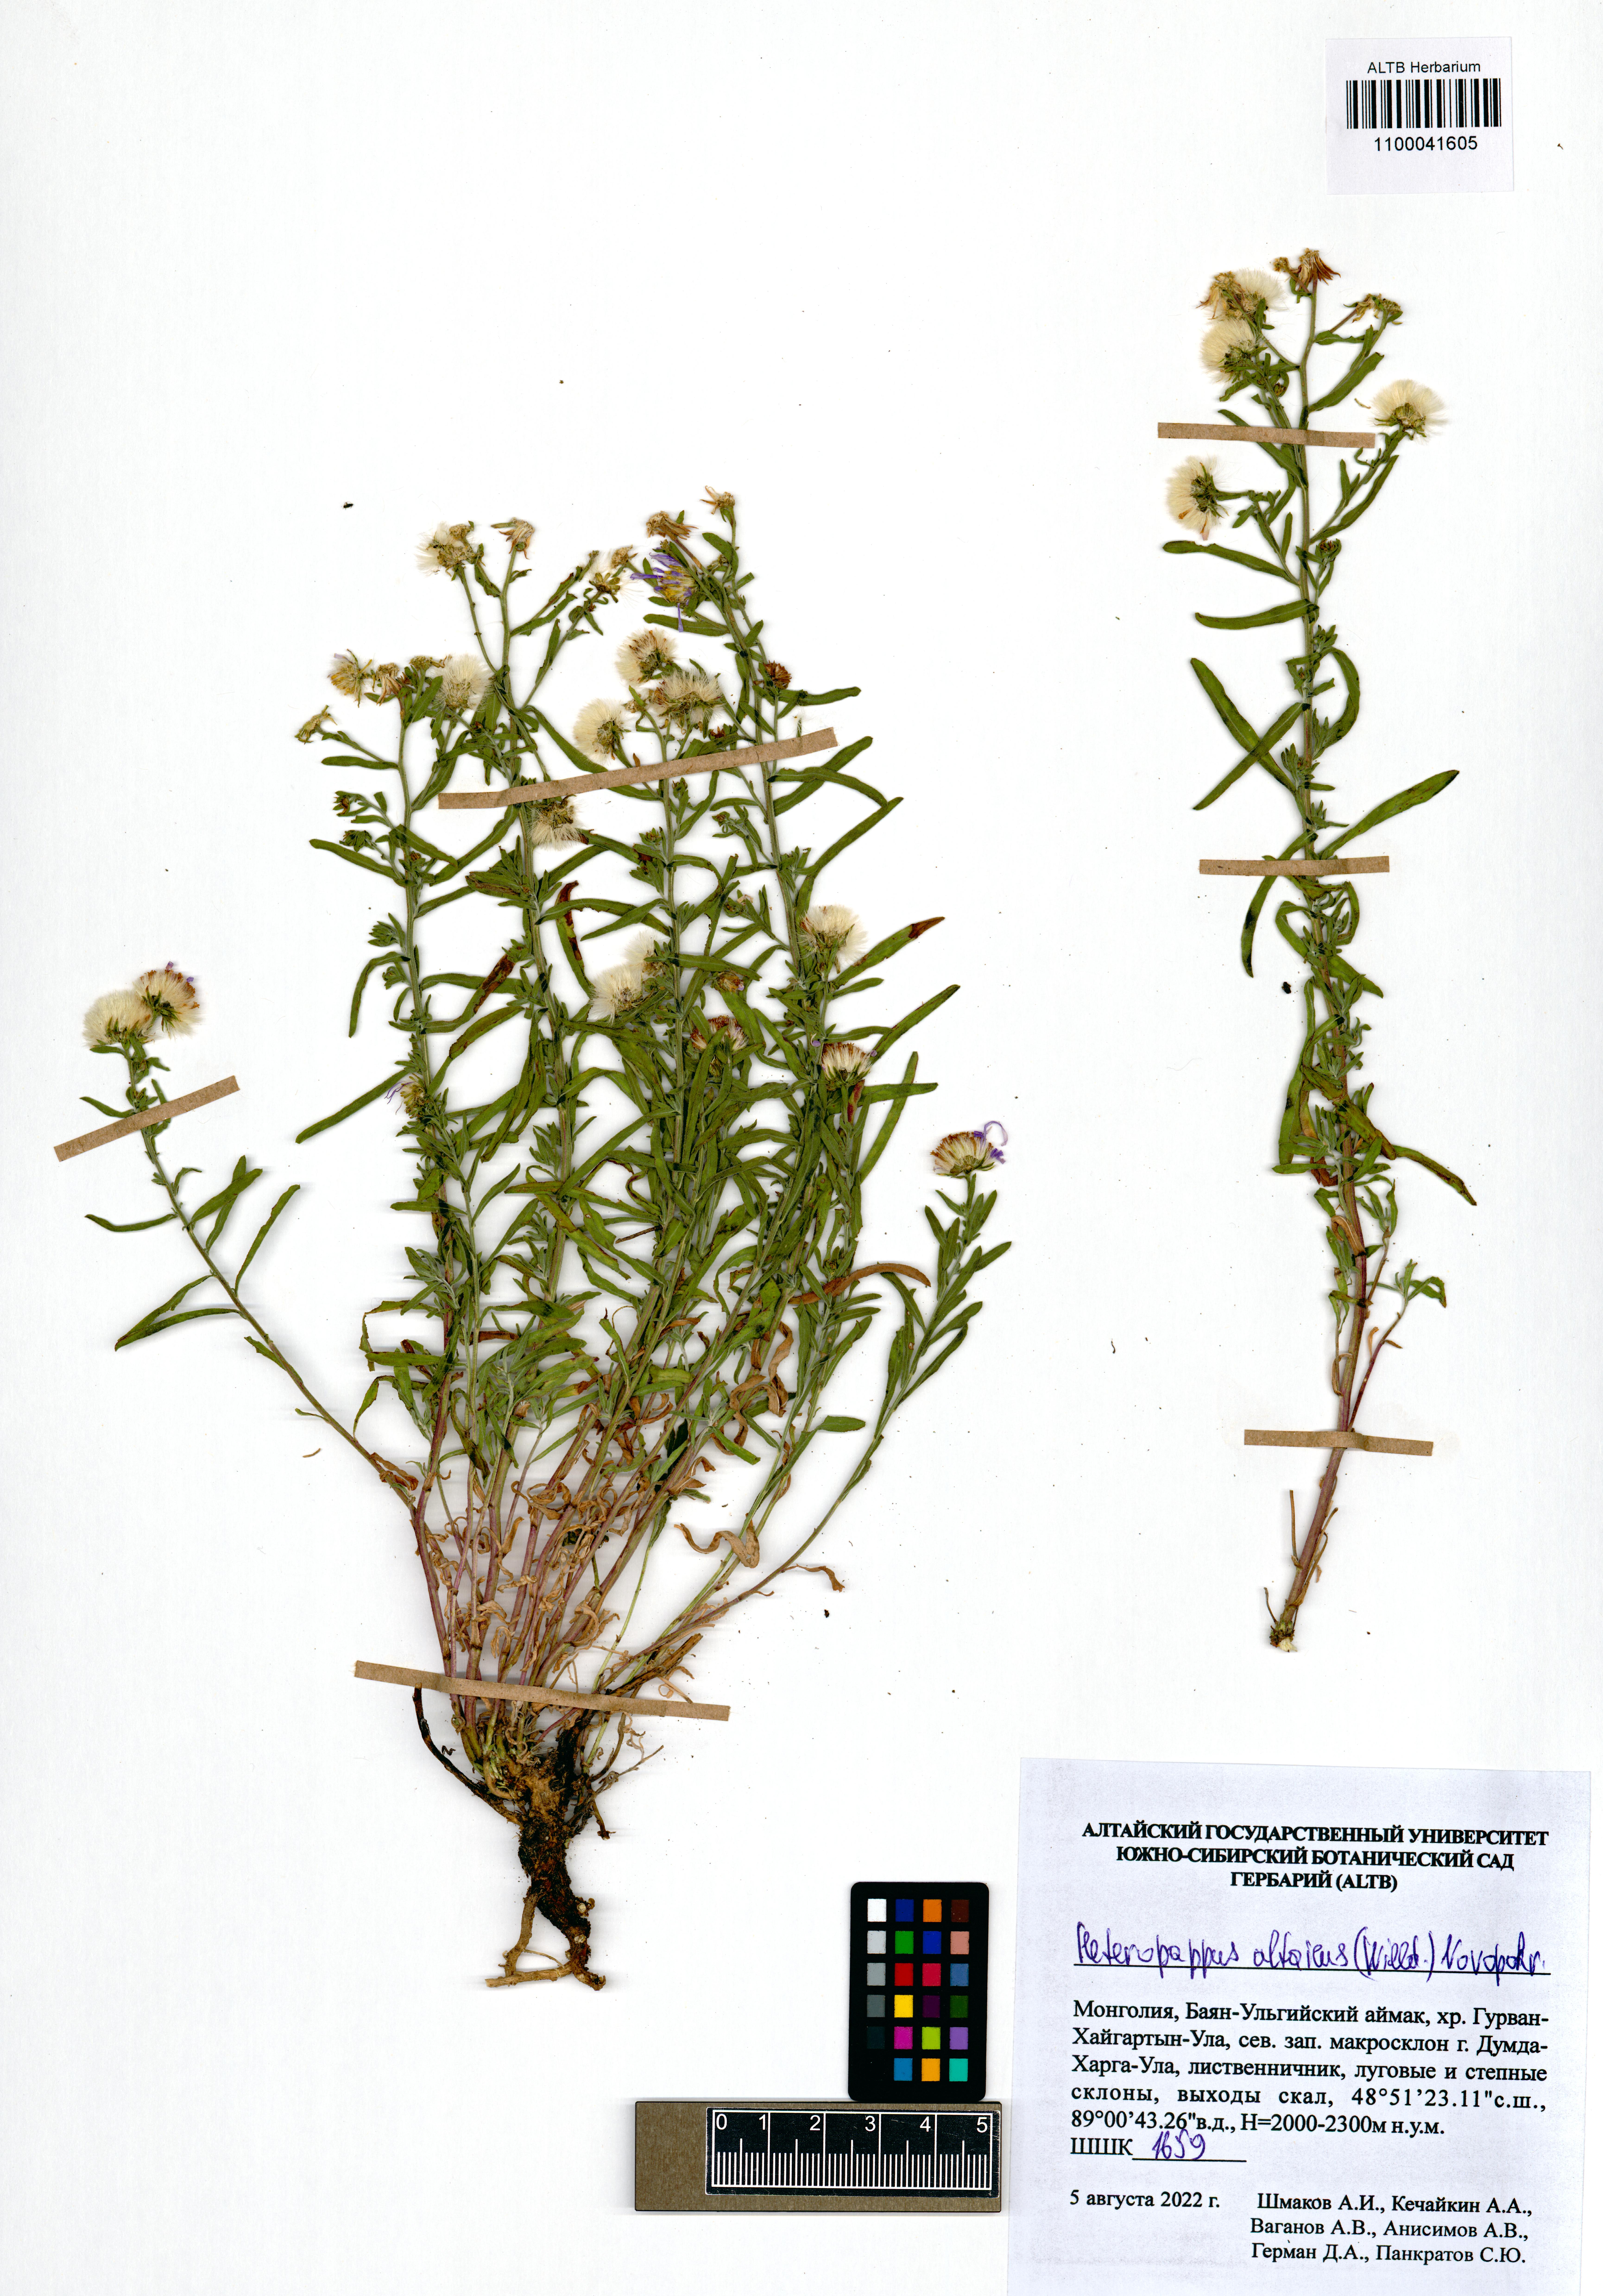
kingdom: Plantae
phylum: Tracheophyta
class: Magnoliopsida
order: Asterales
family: Asteraceae
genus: Heteropappus
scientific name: Heteropappus altaicus
